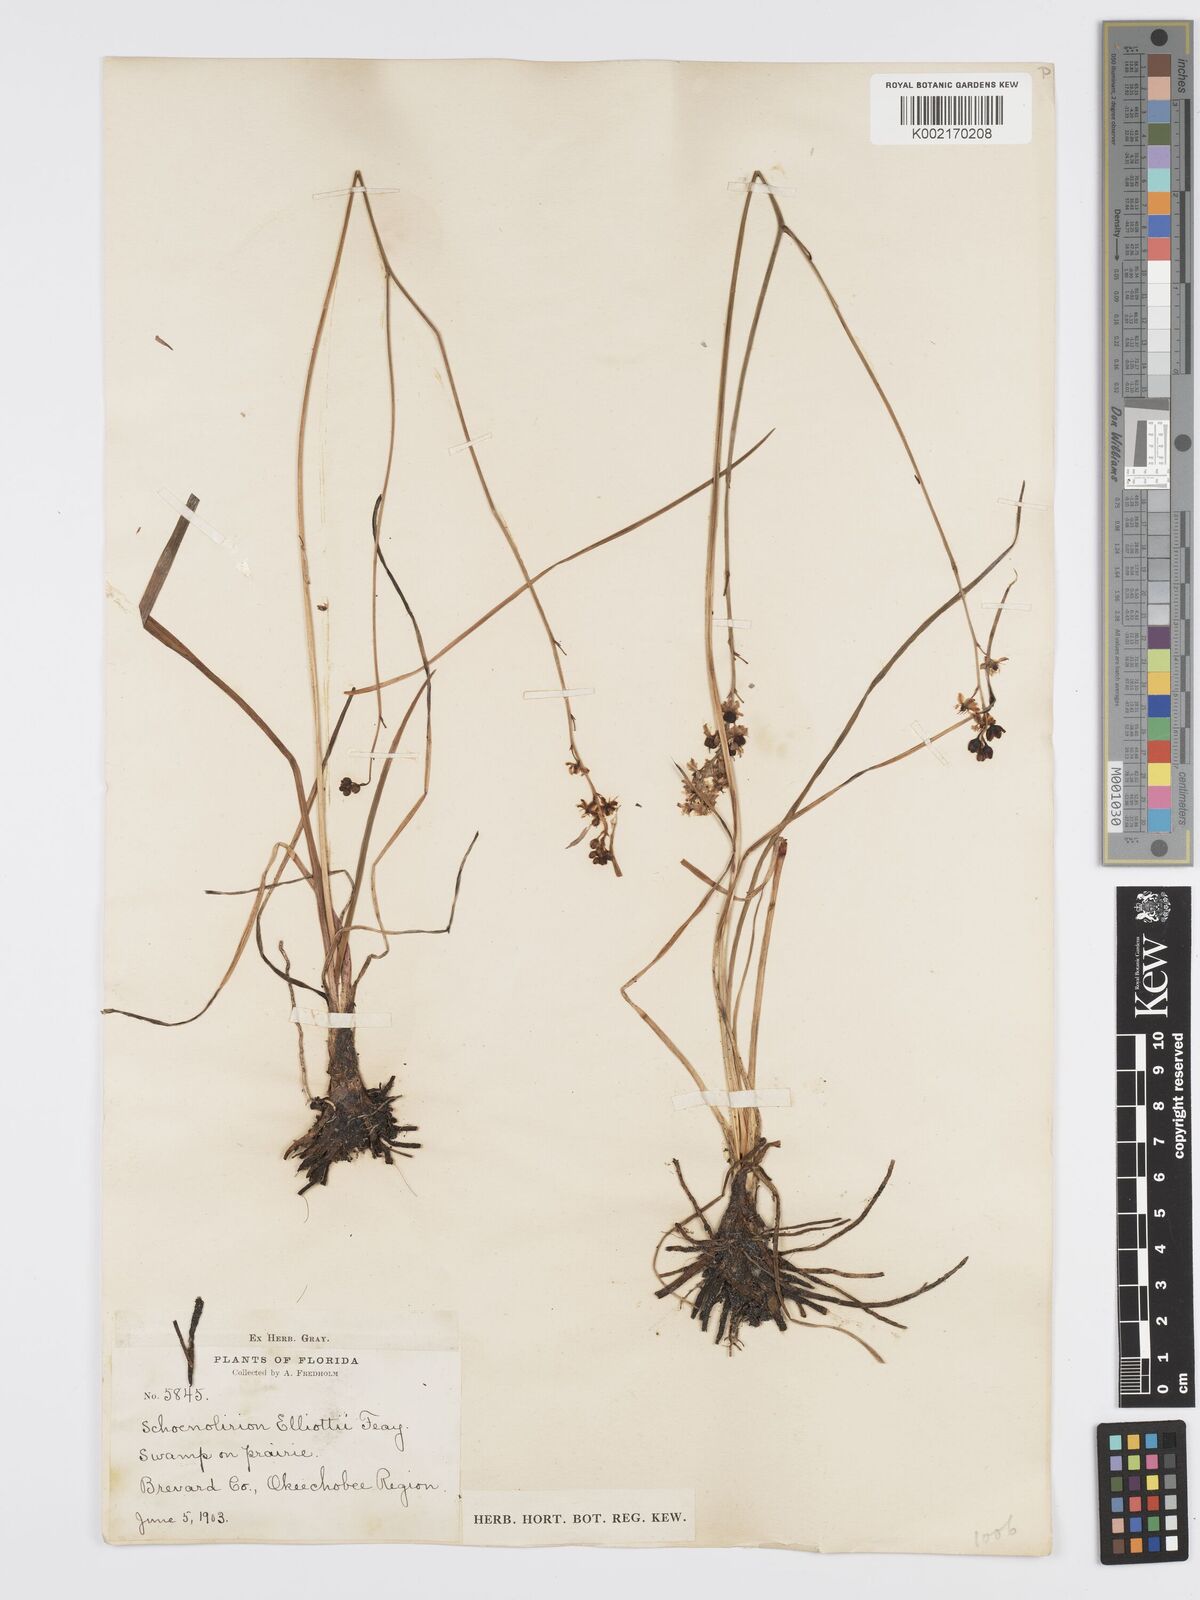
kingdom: Plantae
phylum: Tracheophyta
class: Liliopsida
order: Asparagales
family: Asparagaceae
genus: Schoenolirion
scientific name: Schoenolirion albiflorum
